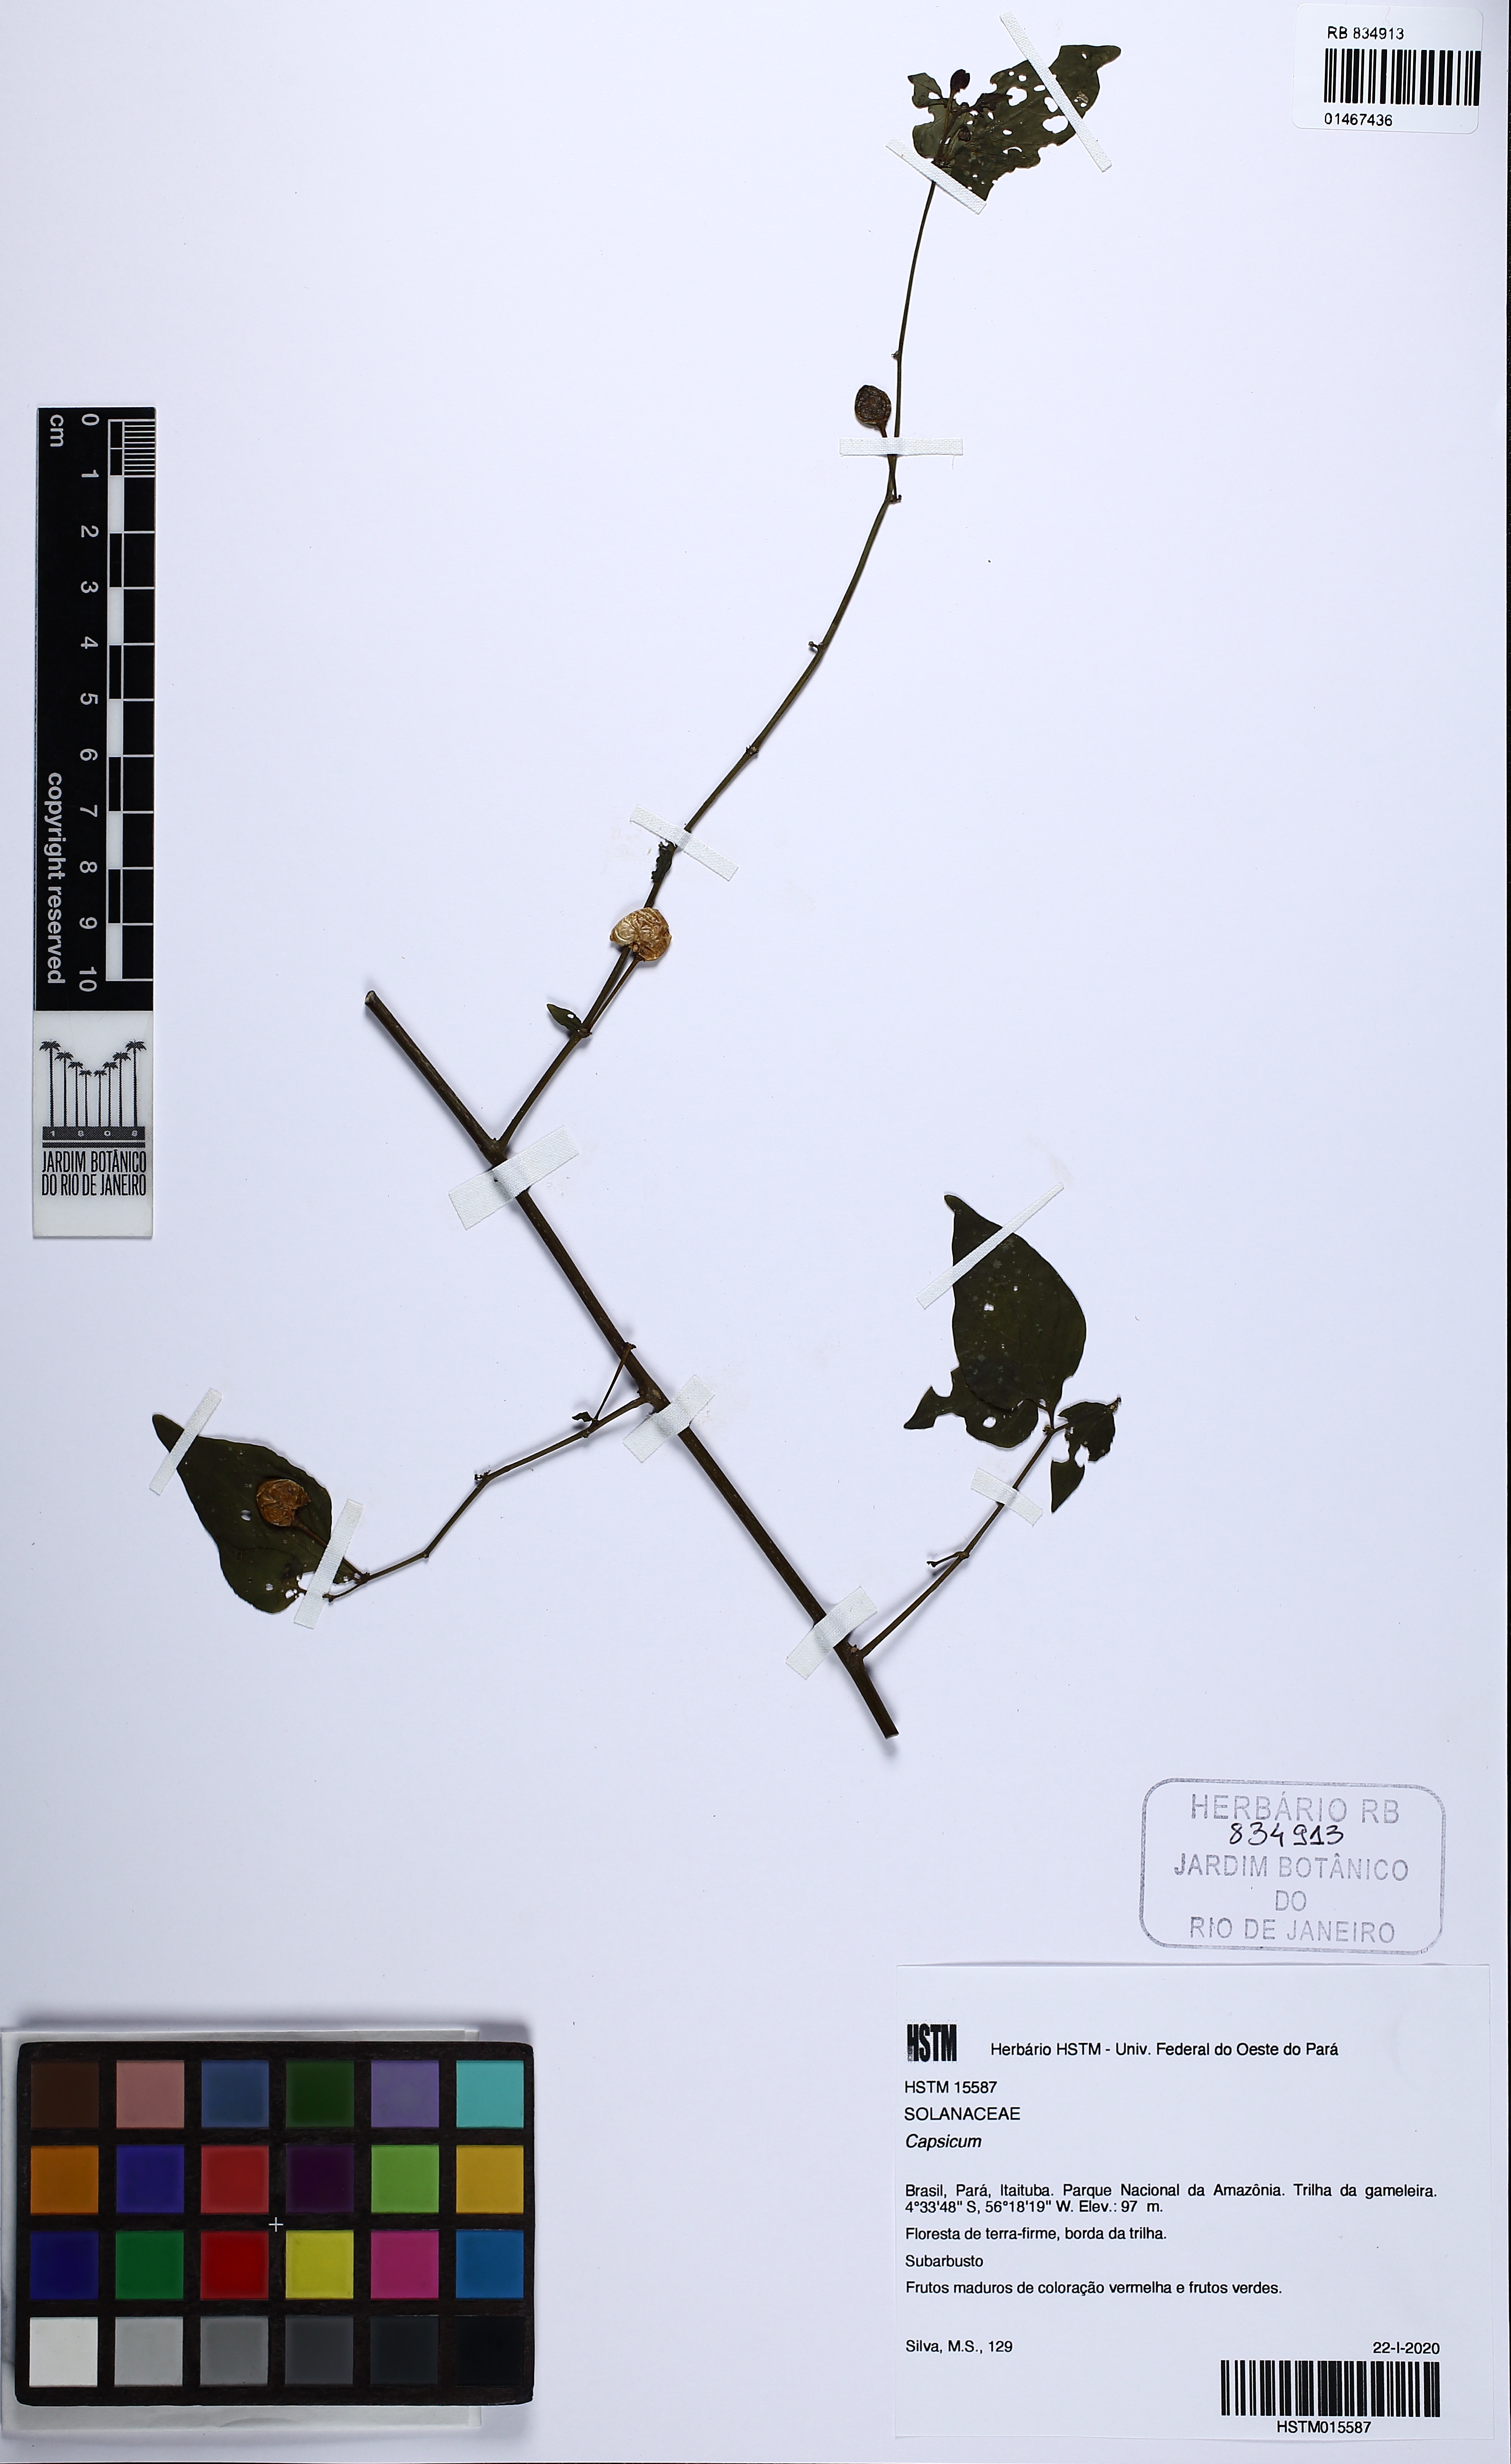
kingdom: Plantae
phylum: Tracheophyta
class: Magnoliopsida
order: Solanales
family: Solanaceae
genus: Capsicum
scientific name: Capsicum
